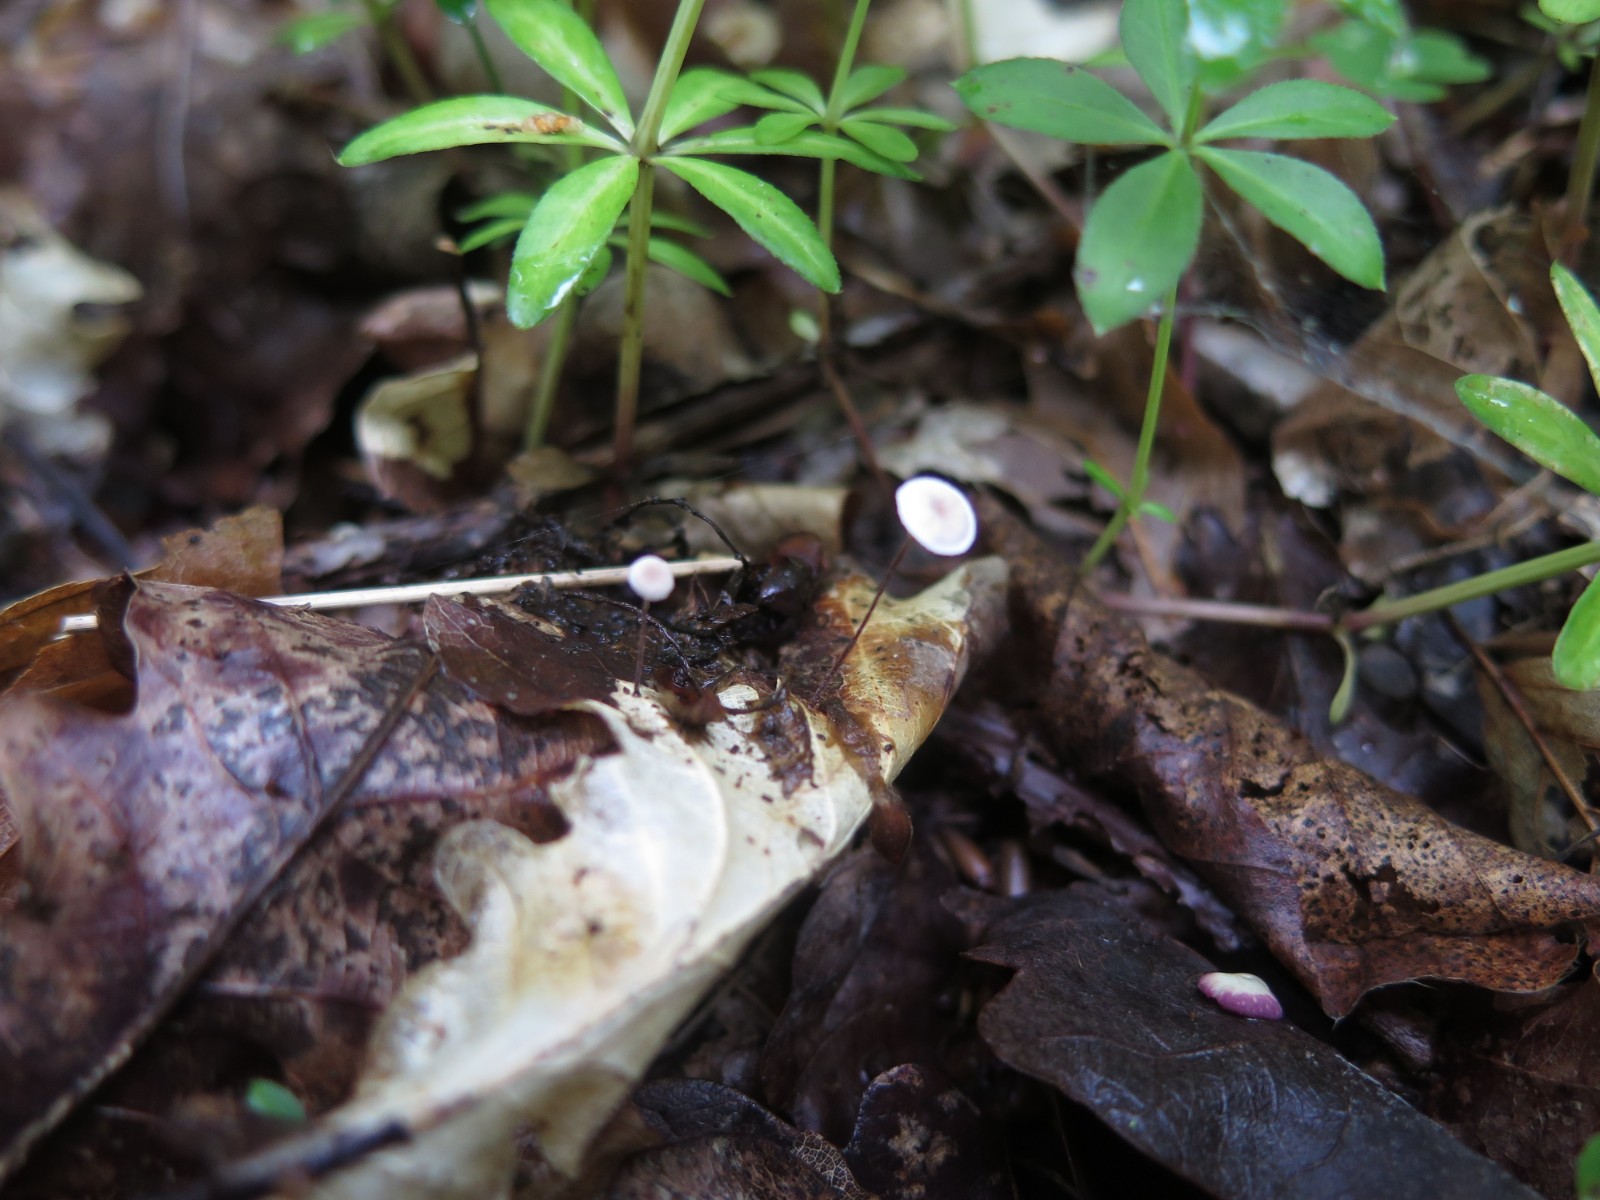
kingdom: Fungi
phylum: Basidiomycota
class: Agaricomycetes
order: Agaricales
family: Physalacriaceae
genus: Rhizomarasmius
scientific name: Rhizomarasmius setosus
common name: bøgeblads-bruskhat
